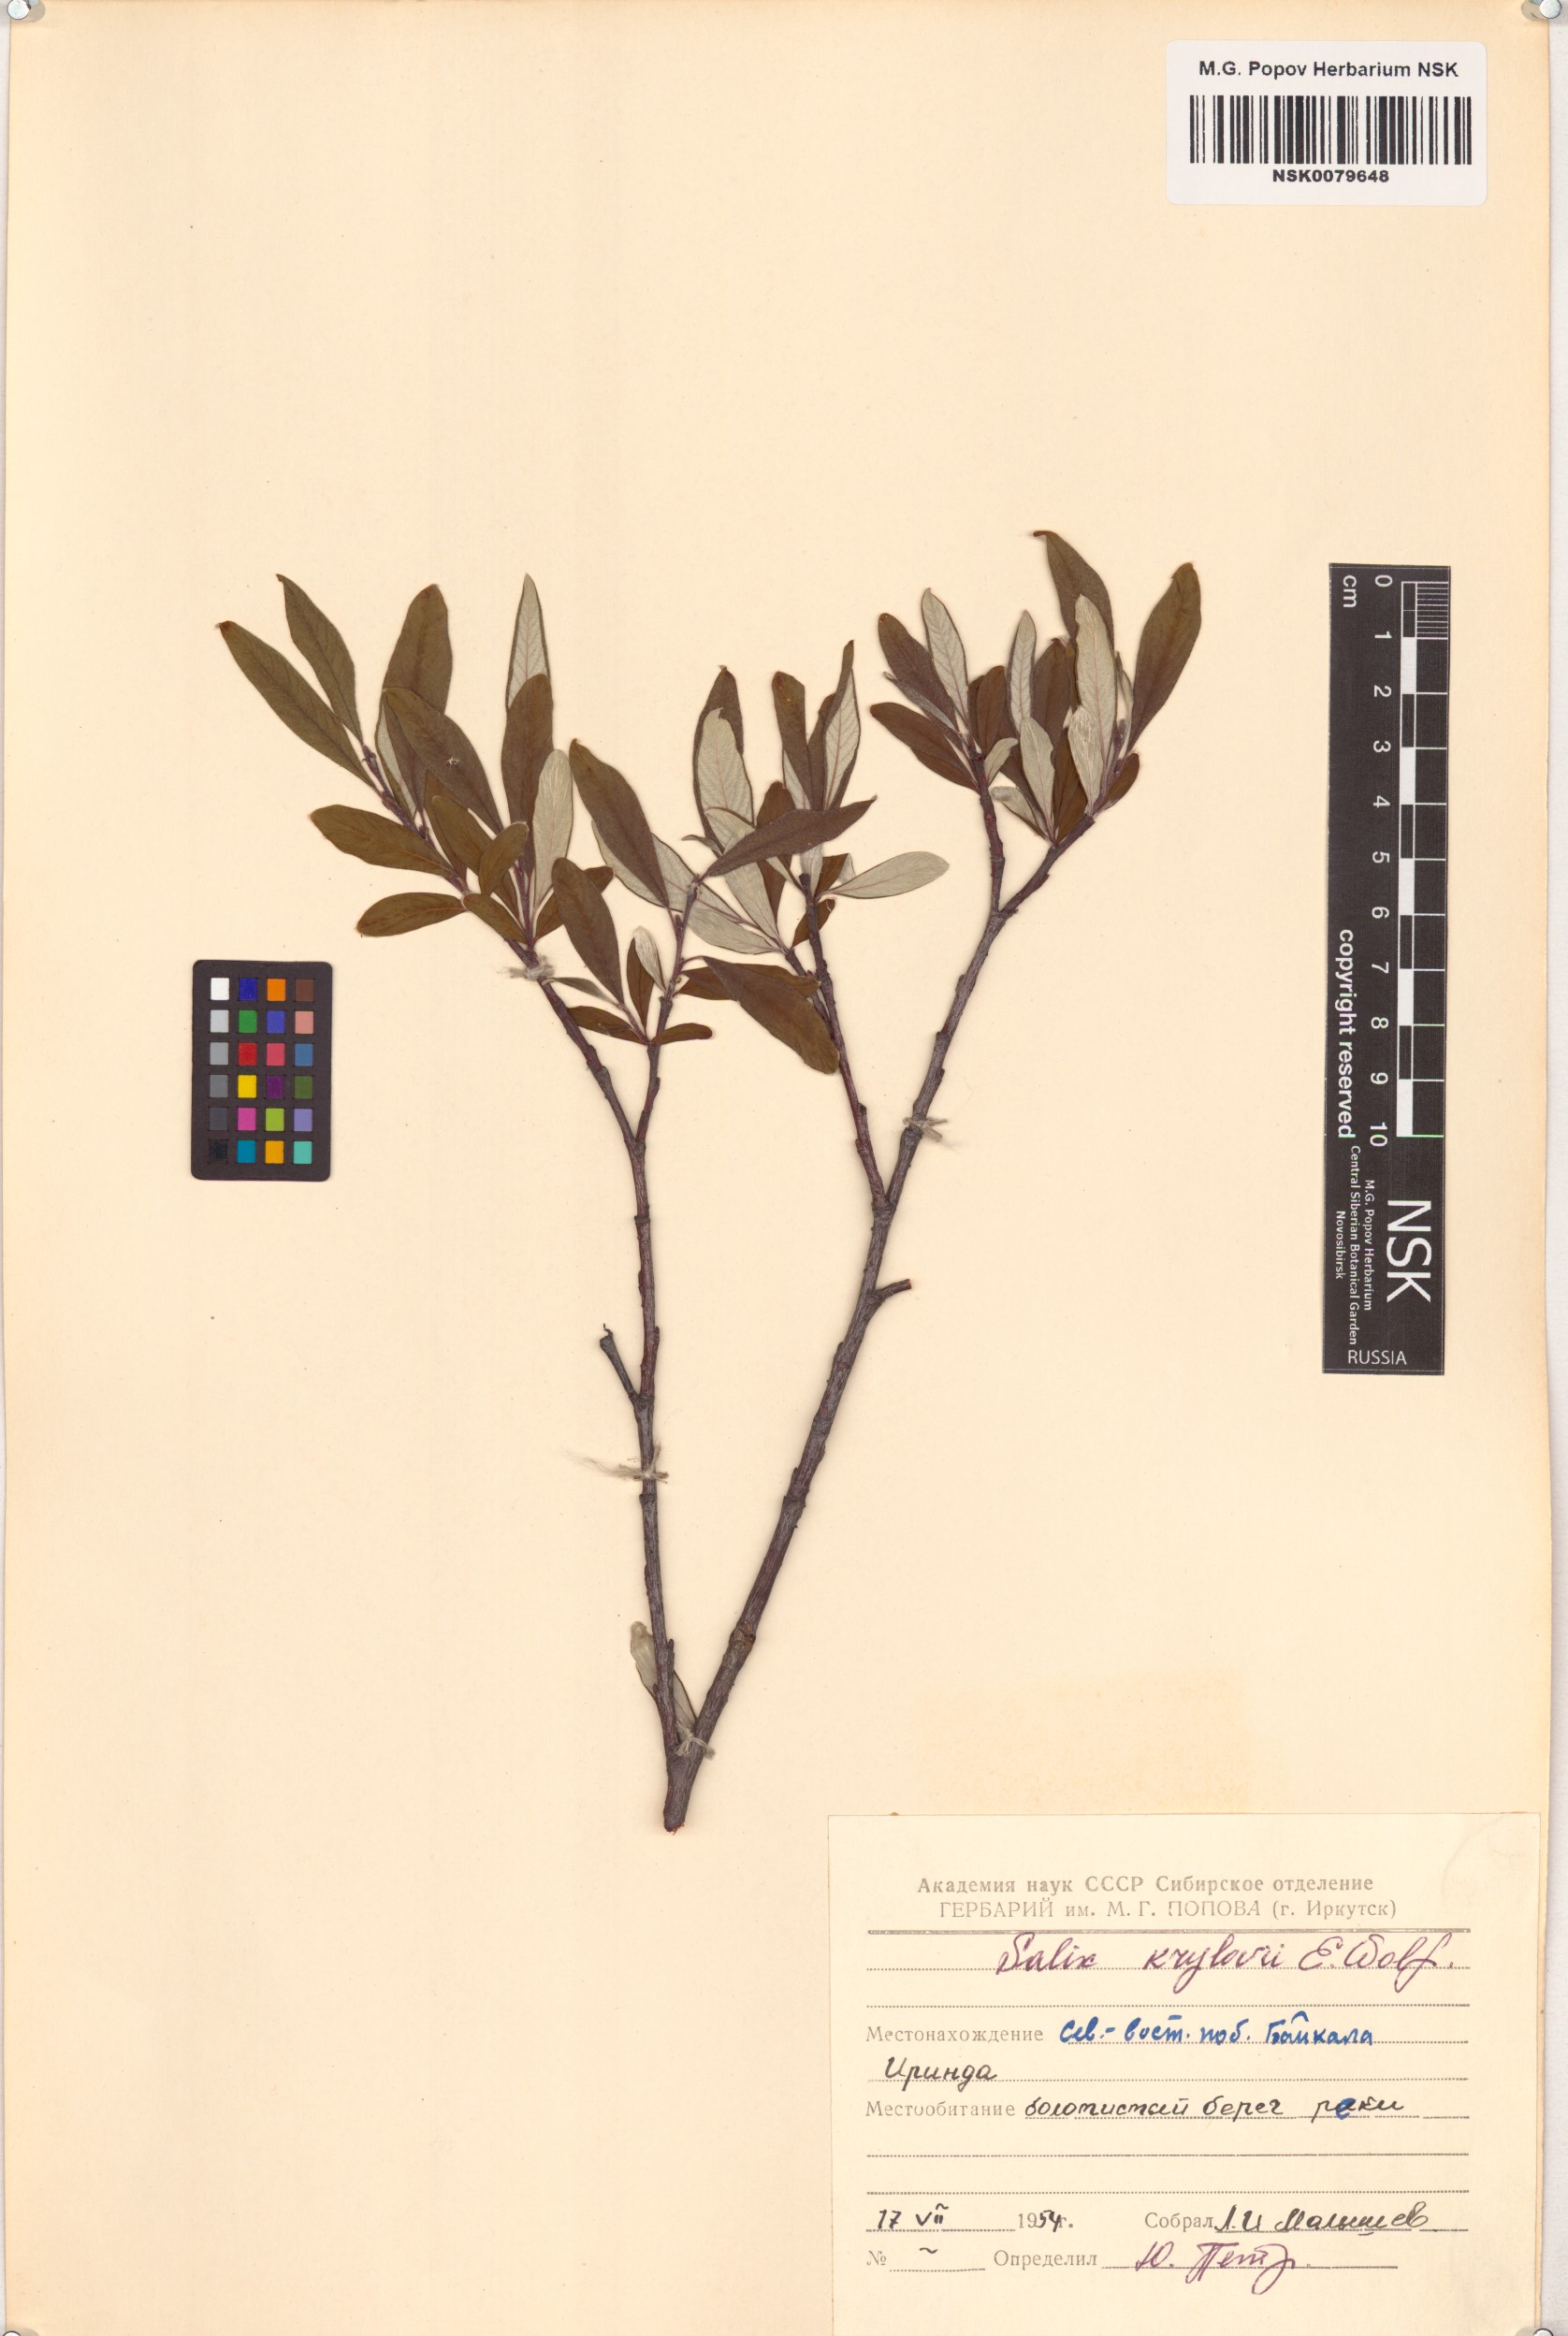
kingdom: Plantae
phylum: Tracheophyta
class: Magnoliopsida
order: Malpighiales
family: Salicaceae
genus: Salix
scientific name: Salix krylovii
